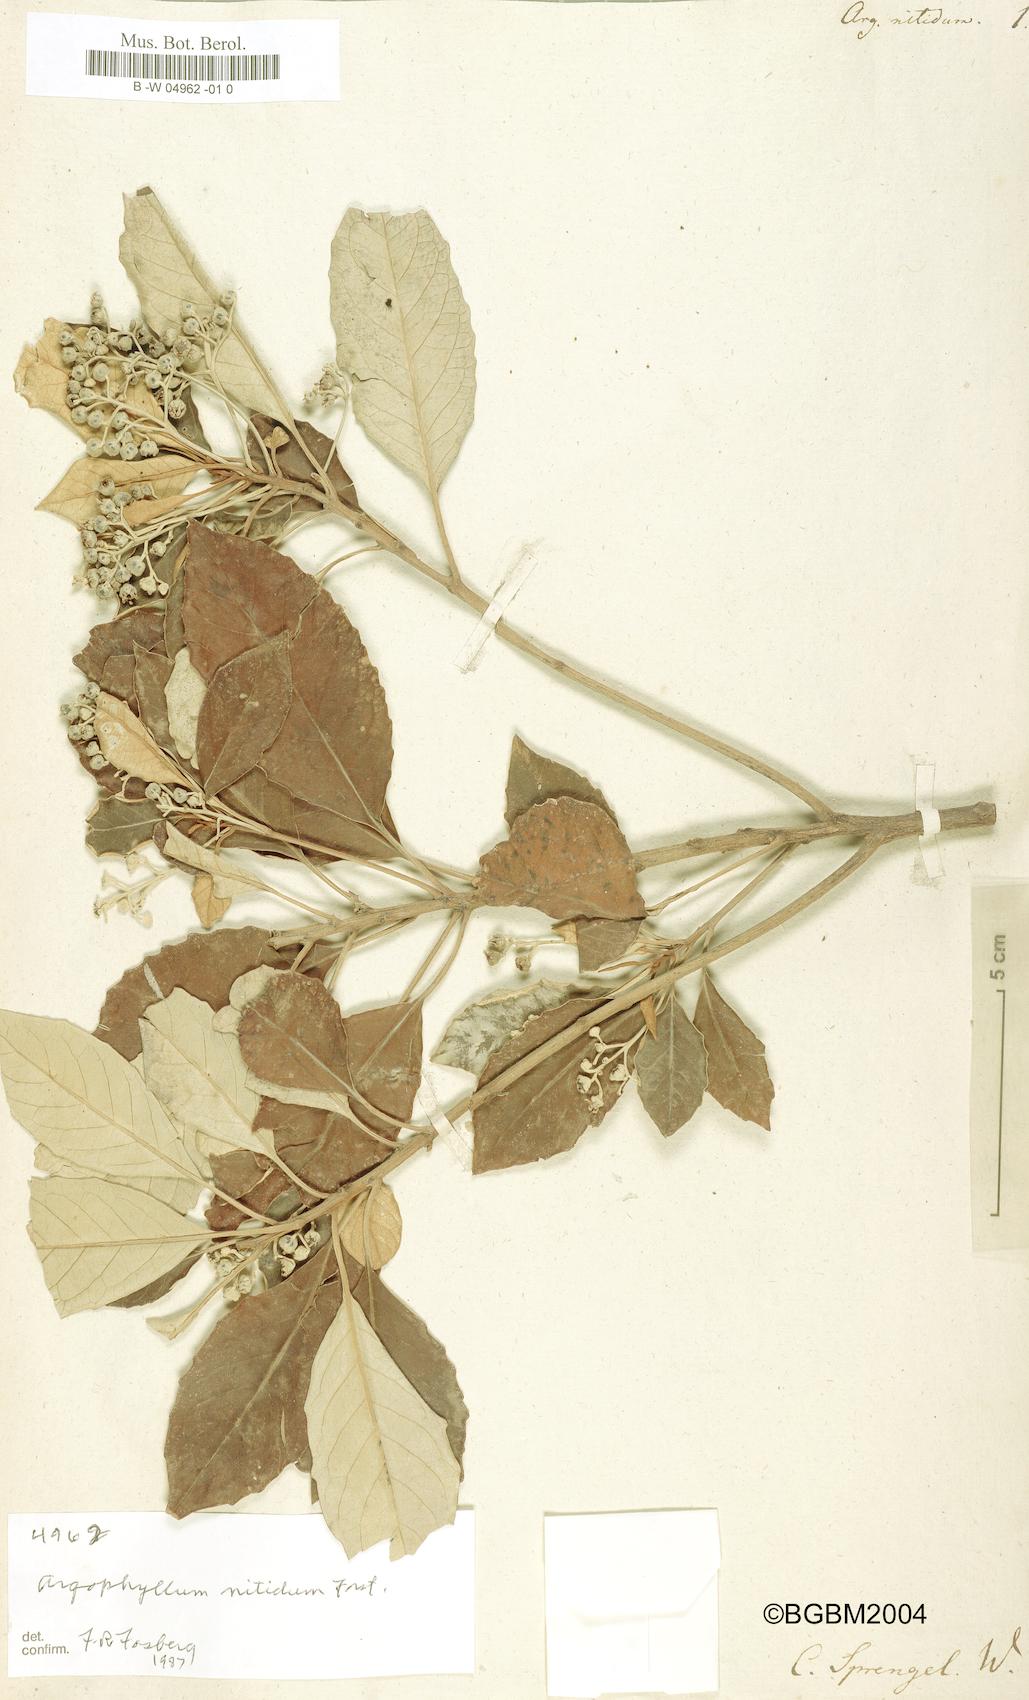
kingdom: Plantae
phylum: Tracheophyta
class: Magnoliopsida
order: Asterales
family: Argophyllaceae
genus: Argophyllum
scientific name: Argophyllum nitidum
